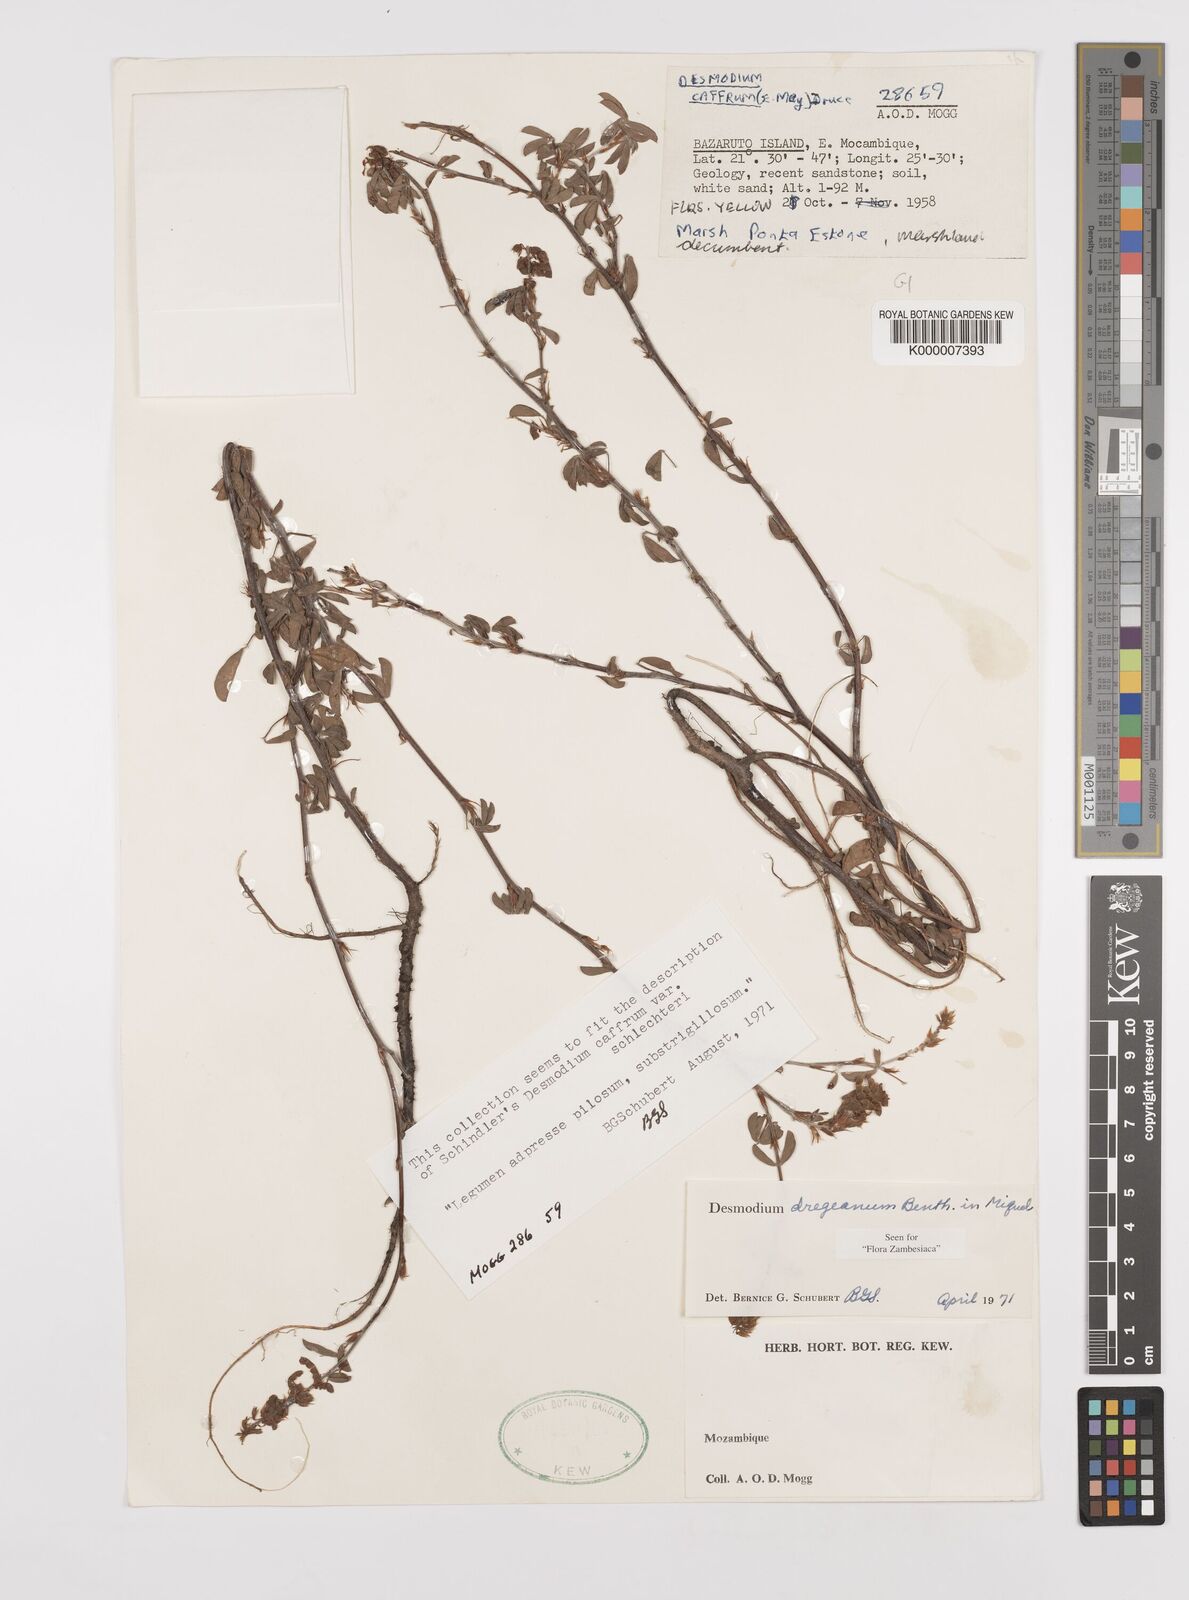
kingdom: Plantae
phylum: Tracheophyta
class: Magnoliopsida
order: Fabales
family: Fabaceae
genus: Grona
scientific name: Grona caffra
